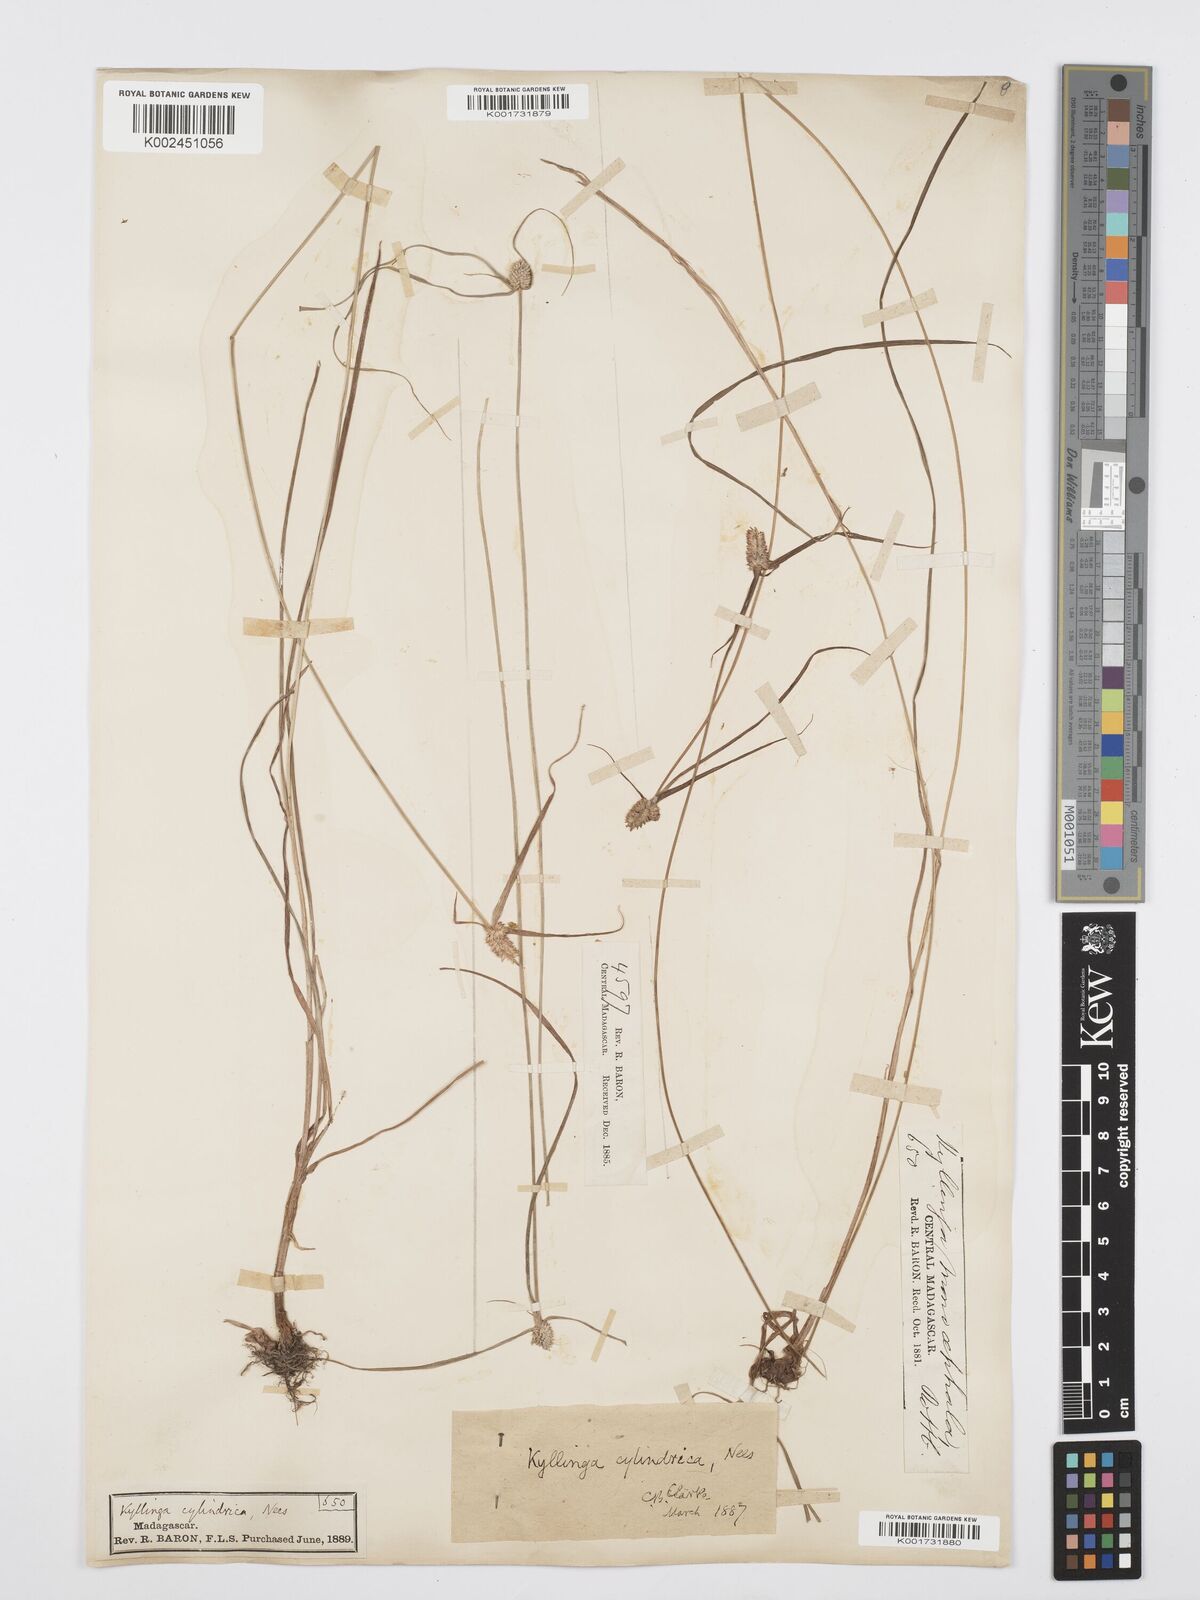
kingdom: Plantae
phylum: Tracheophyta
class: Liliopsida
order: Poales
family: Cyperaceae
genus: Cyperus
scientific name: Cyperus
